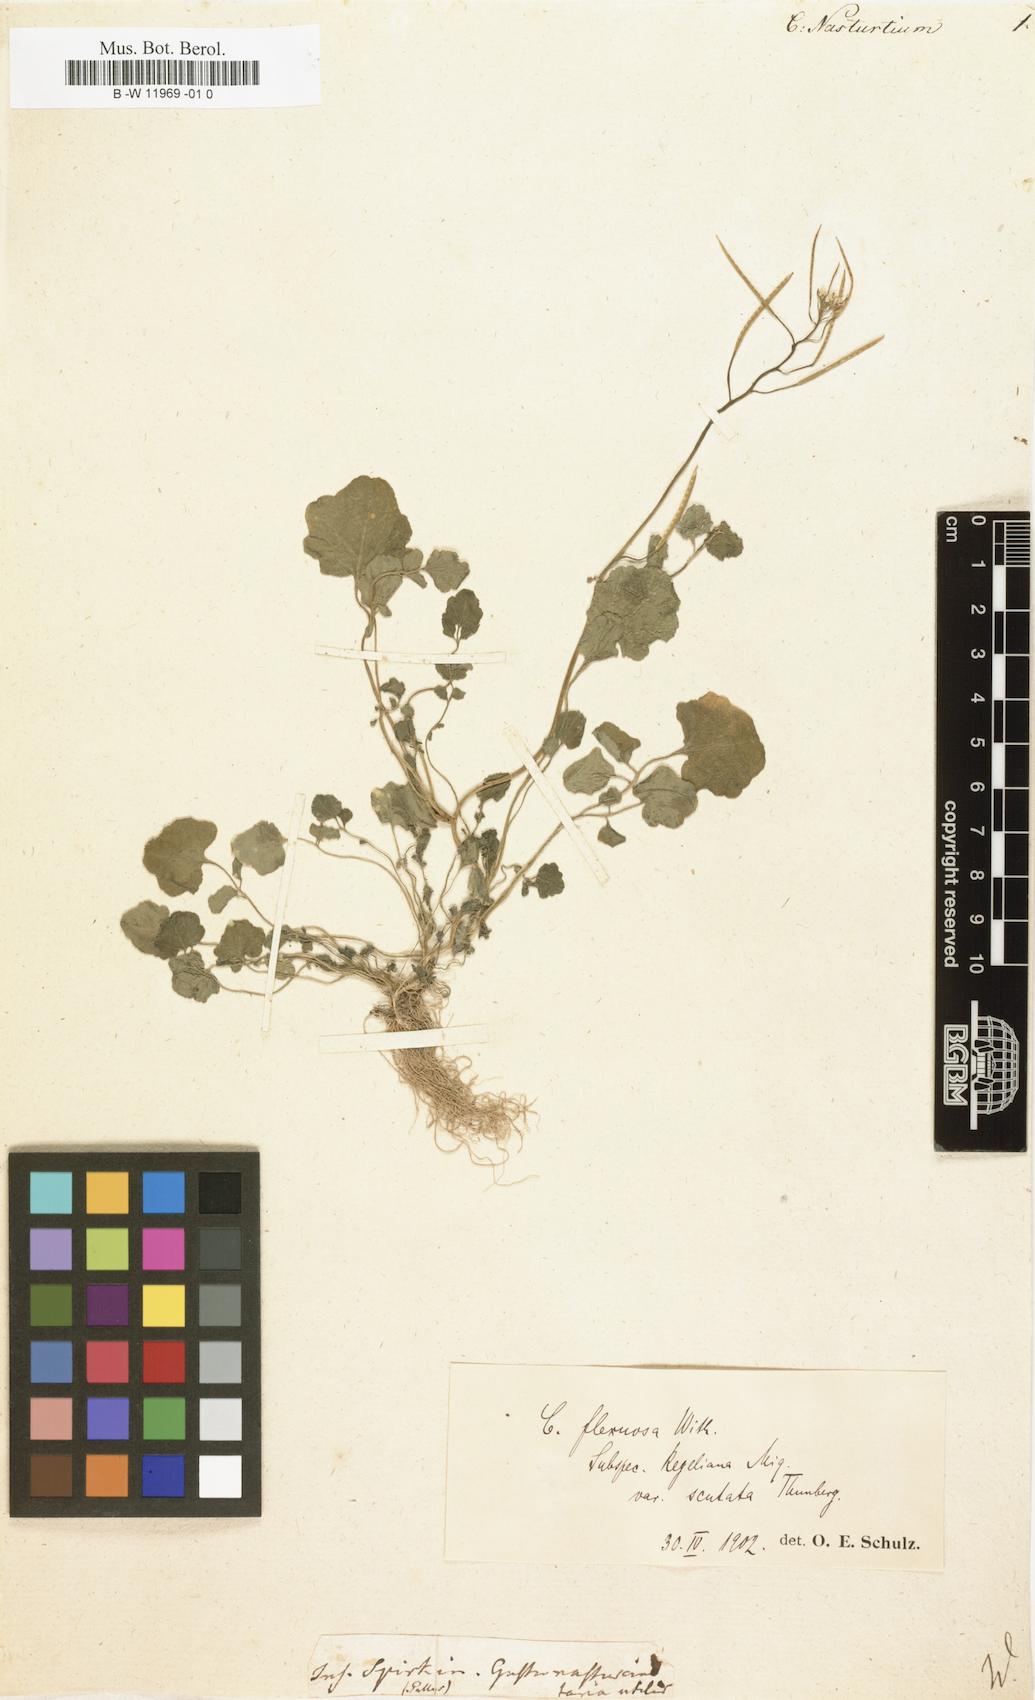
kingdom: Plantae
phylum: Tracheophyta
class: Magnoliopsida
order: Brassicales
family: Brassicaceae
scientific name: Brassicaceae
